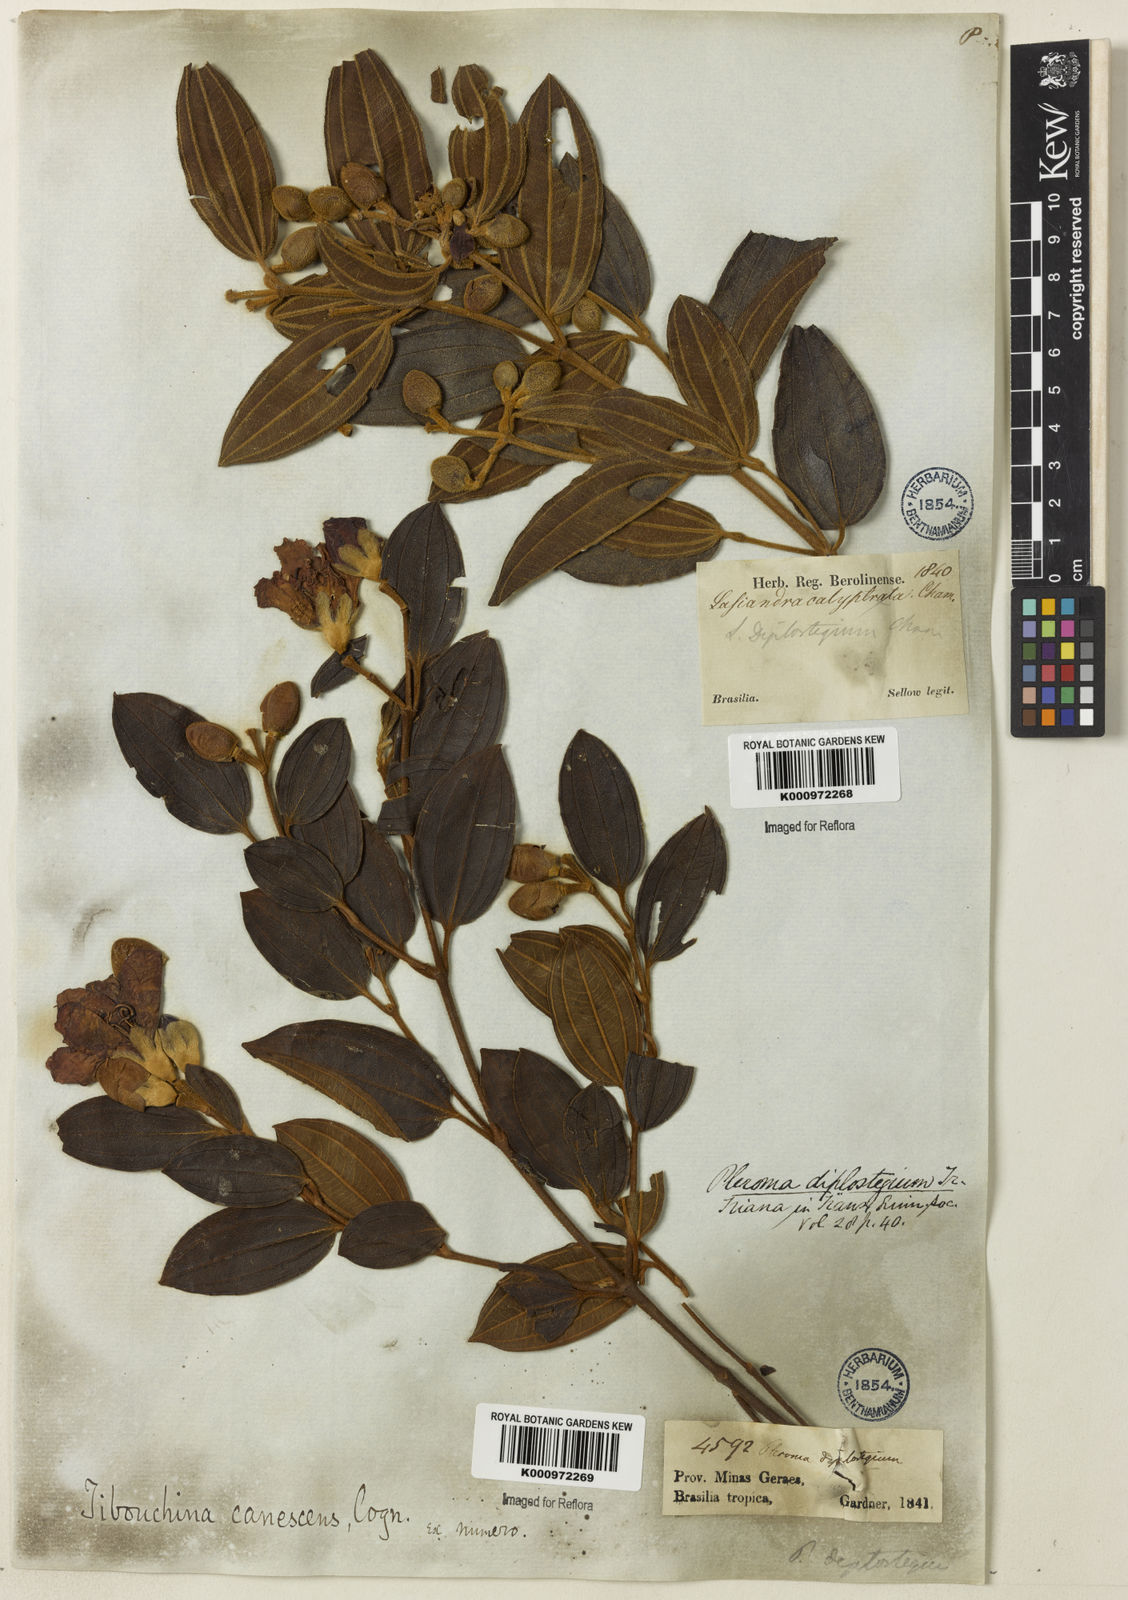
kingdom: Plantae
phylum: Tracheophyta
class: Magnoliopsida
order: Myrtales
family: Melastomataceae
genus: Pleroma
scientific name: Pleroma canescens
